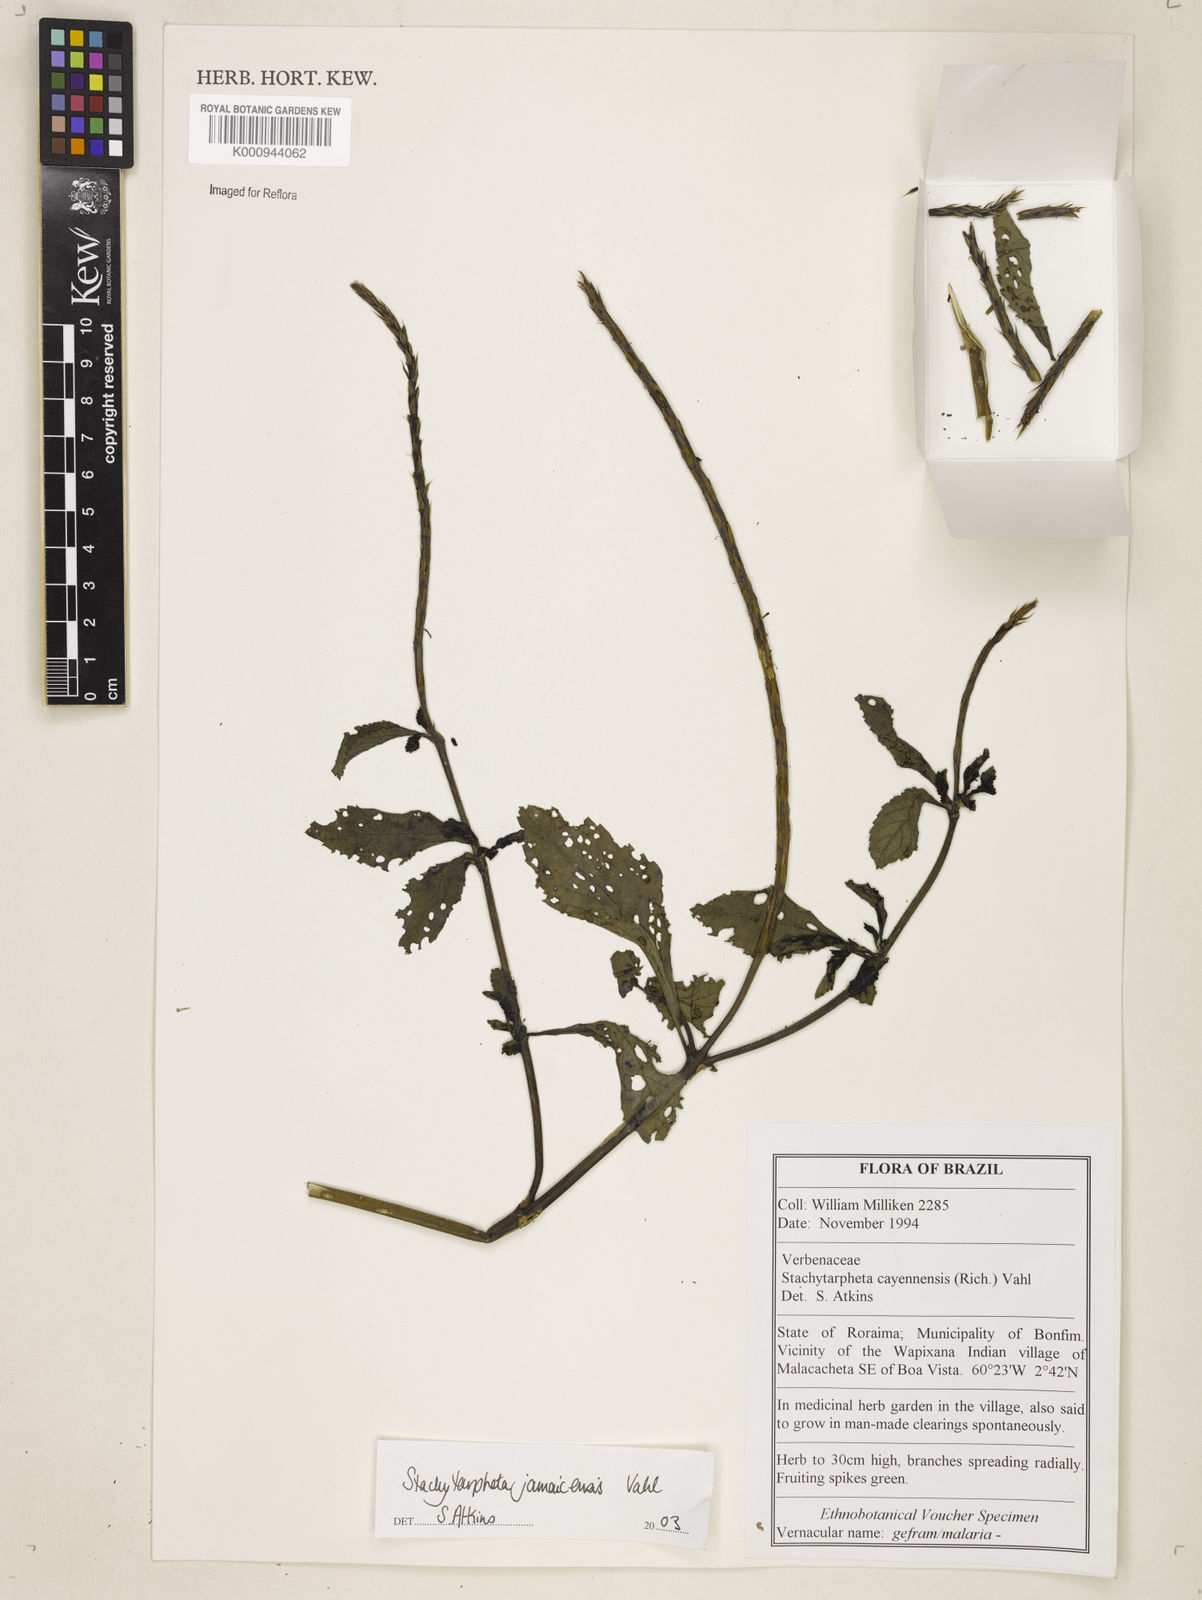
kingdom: Plantae
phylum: Tracheophyta
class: Magnoliopsida
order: Lamiales
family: Verbenaceae
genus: Stachytarpheta
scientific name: Stachytarpheta jamaicensis
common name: Light-blue snakeweed
